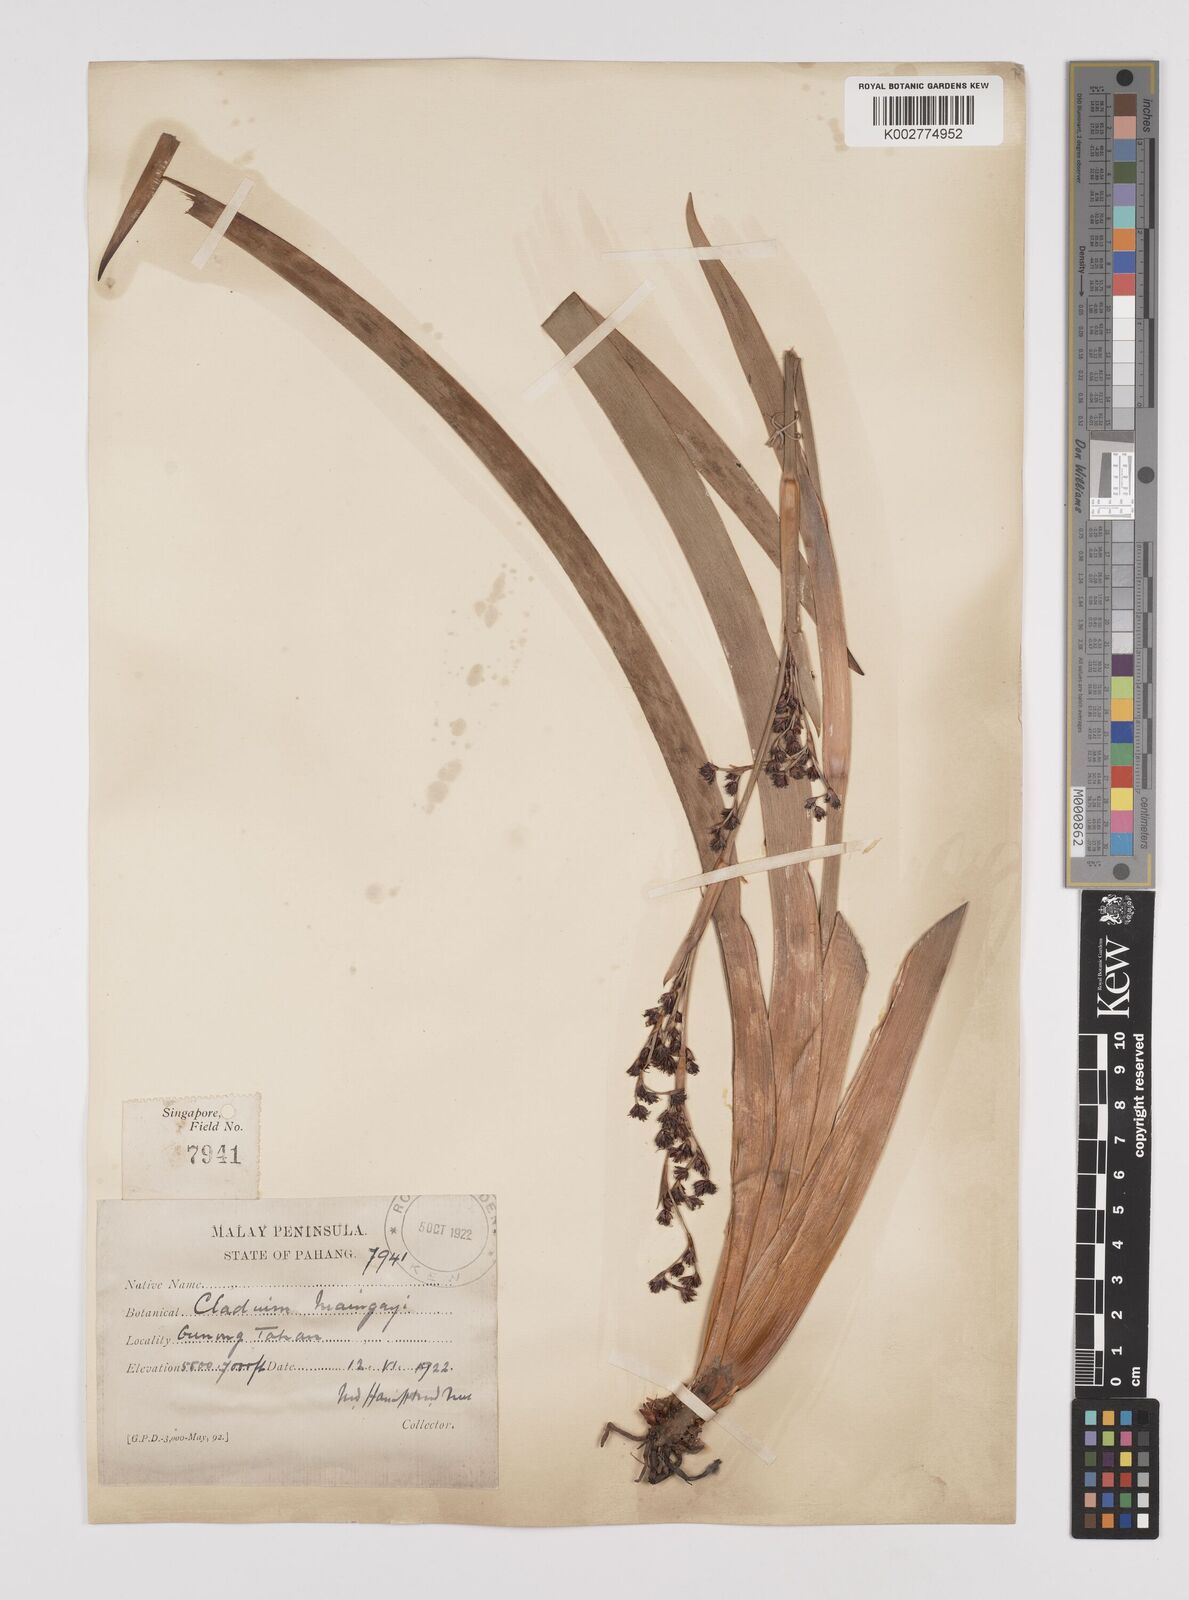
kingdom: Plantae
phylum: Tracheophyta
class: Liliopsida
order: Poales
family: Cyperaceae
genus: Machaerina
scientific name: Machaerina maingayi
